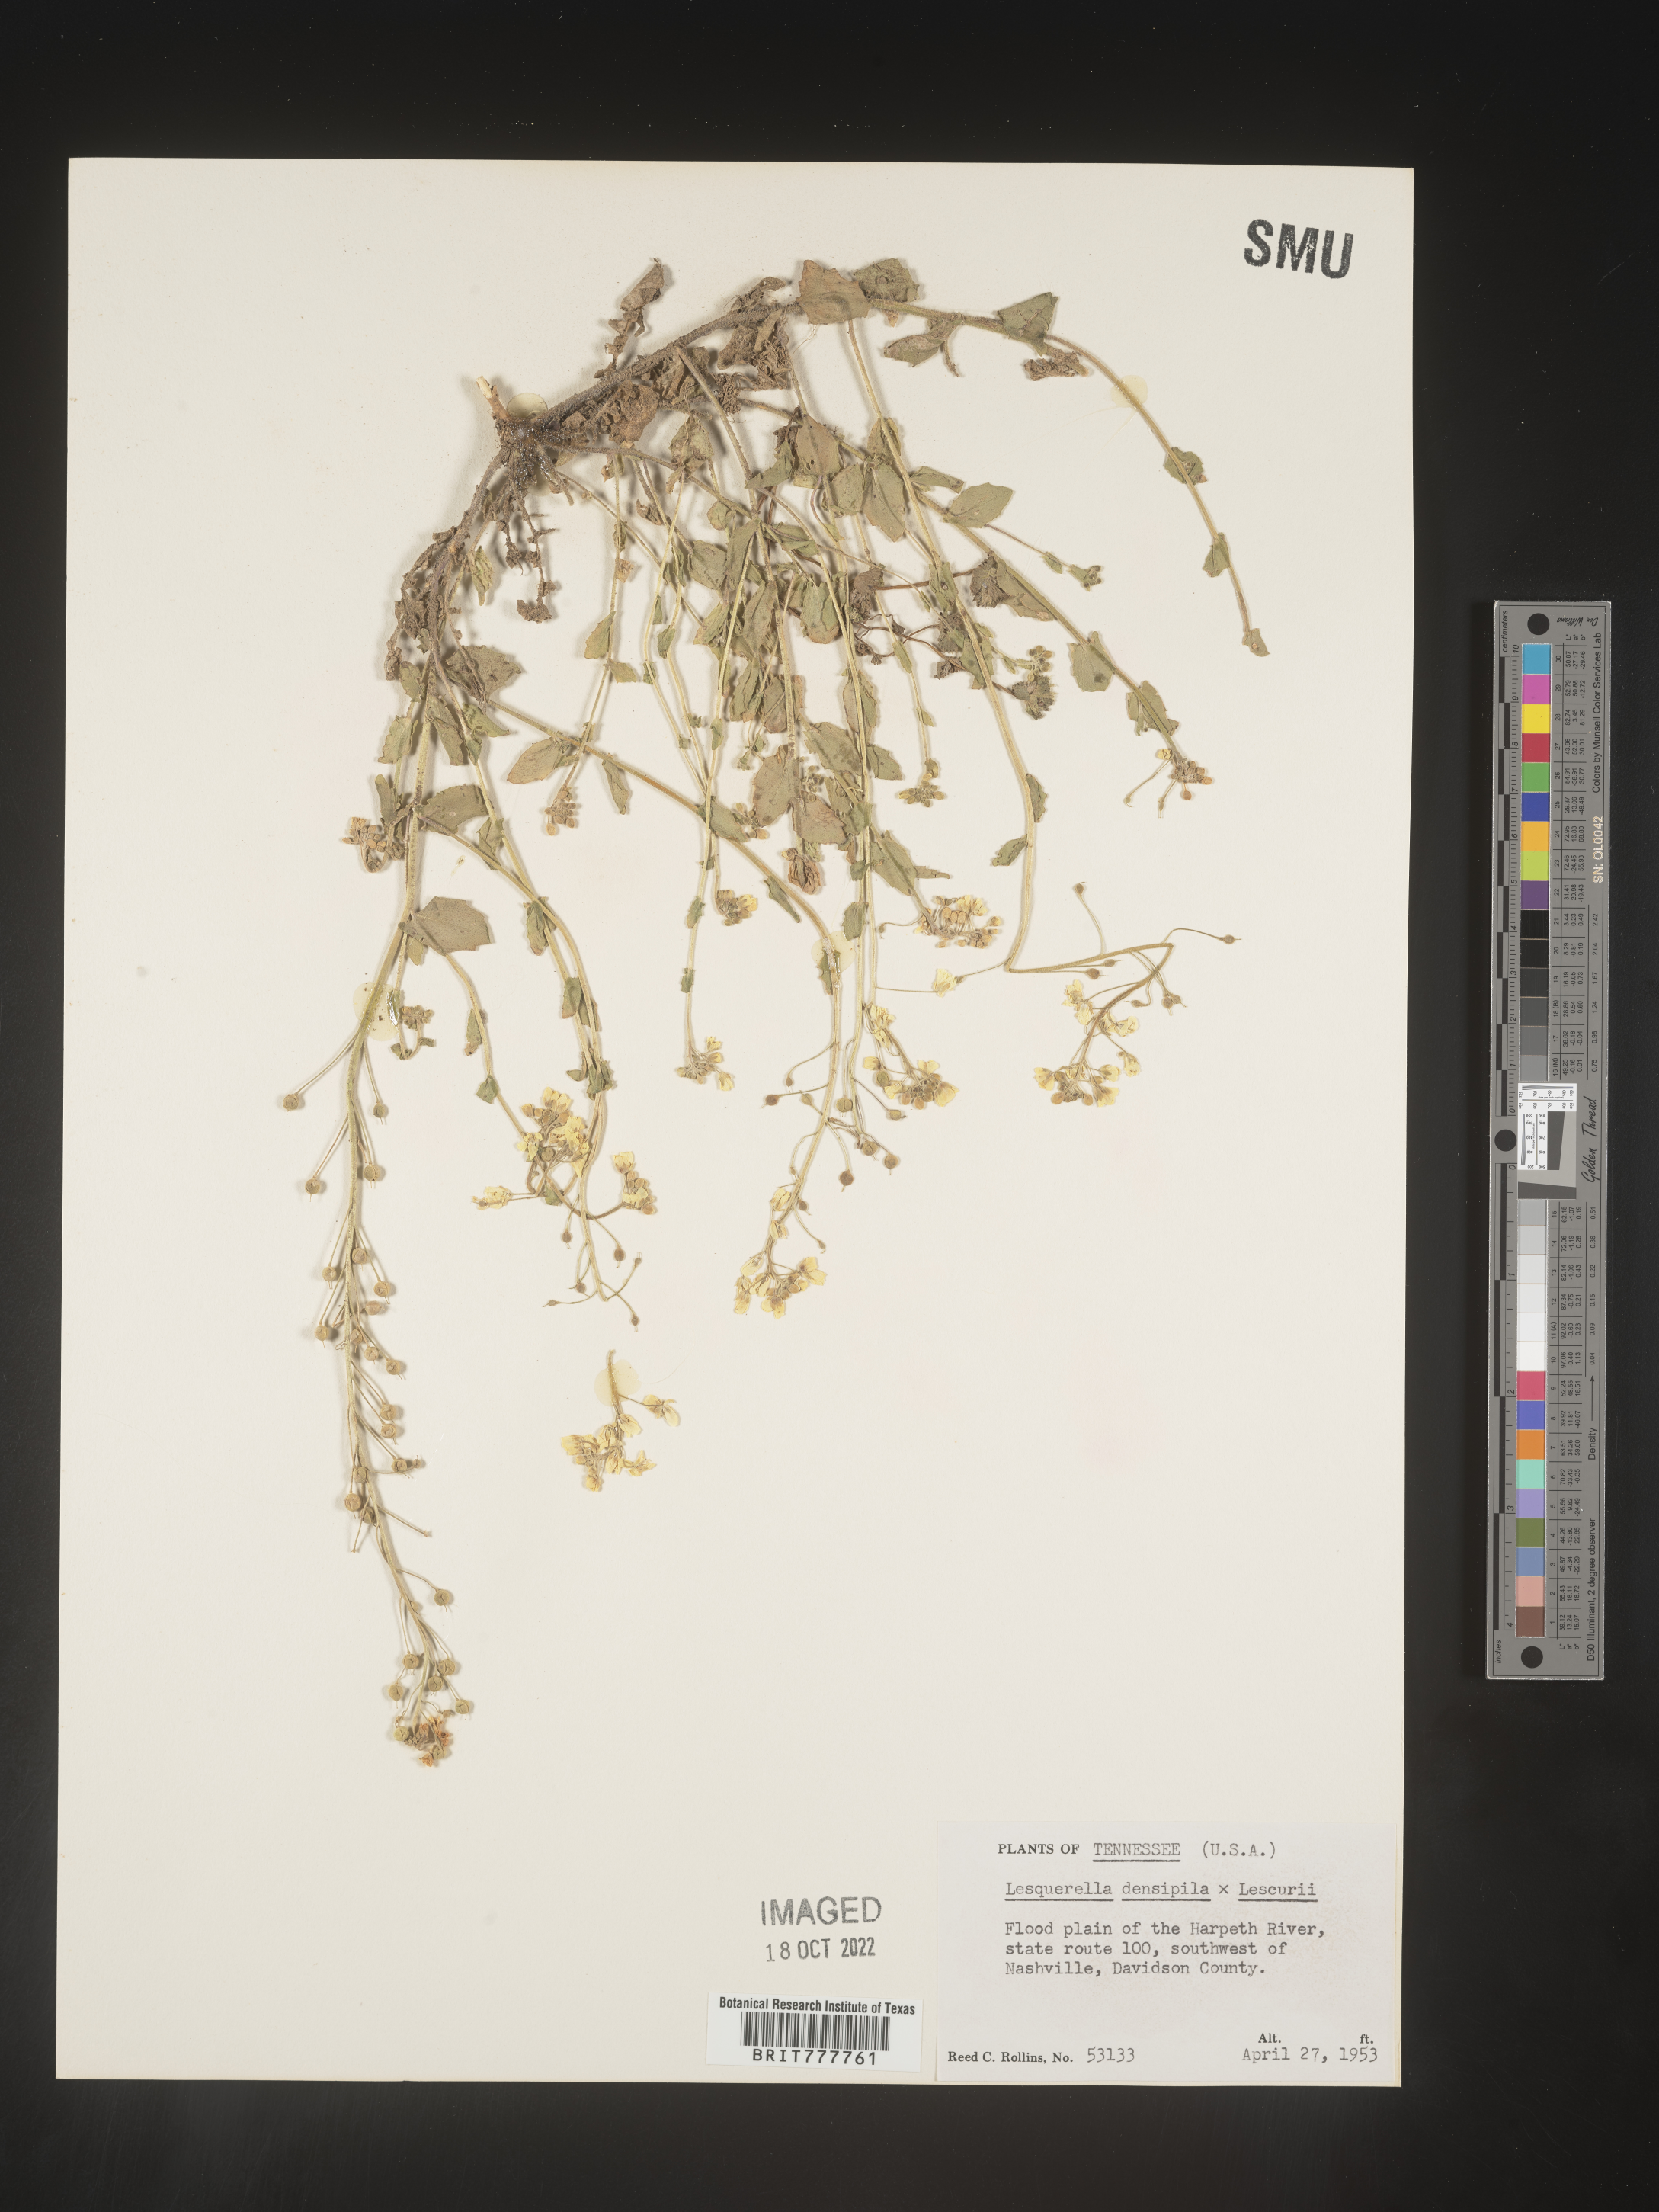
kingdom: Chromista
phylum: Cercozoa
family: Psammonobiotidae
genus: Lesquerella
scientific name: Lesquerella
